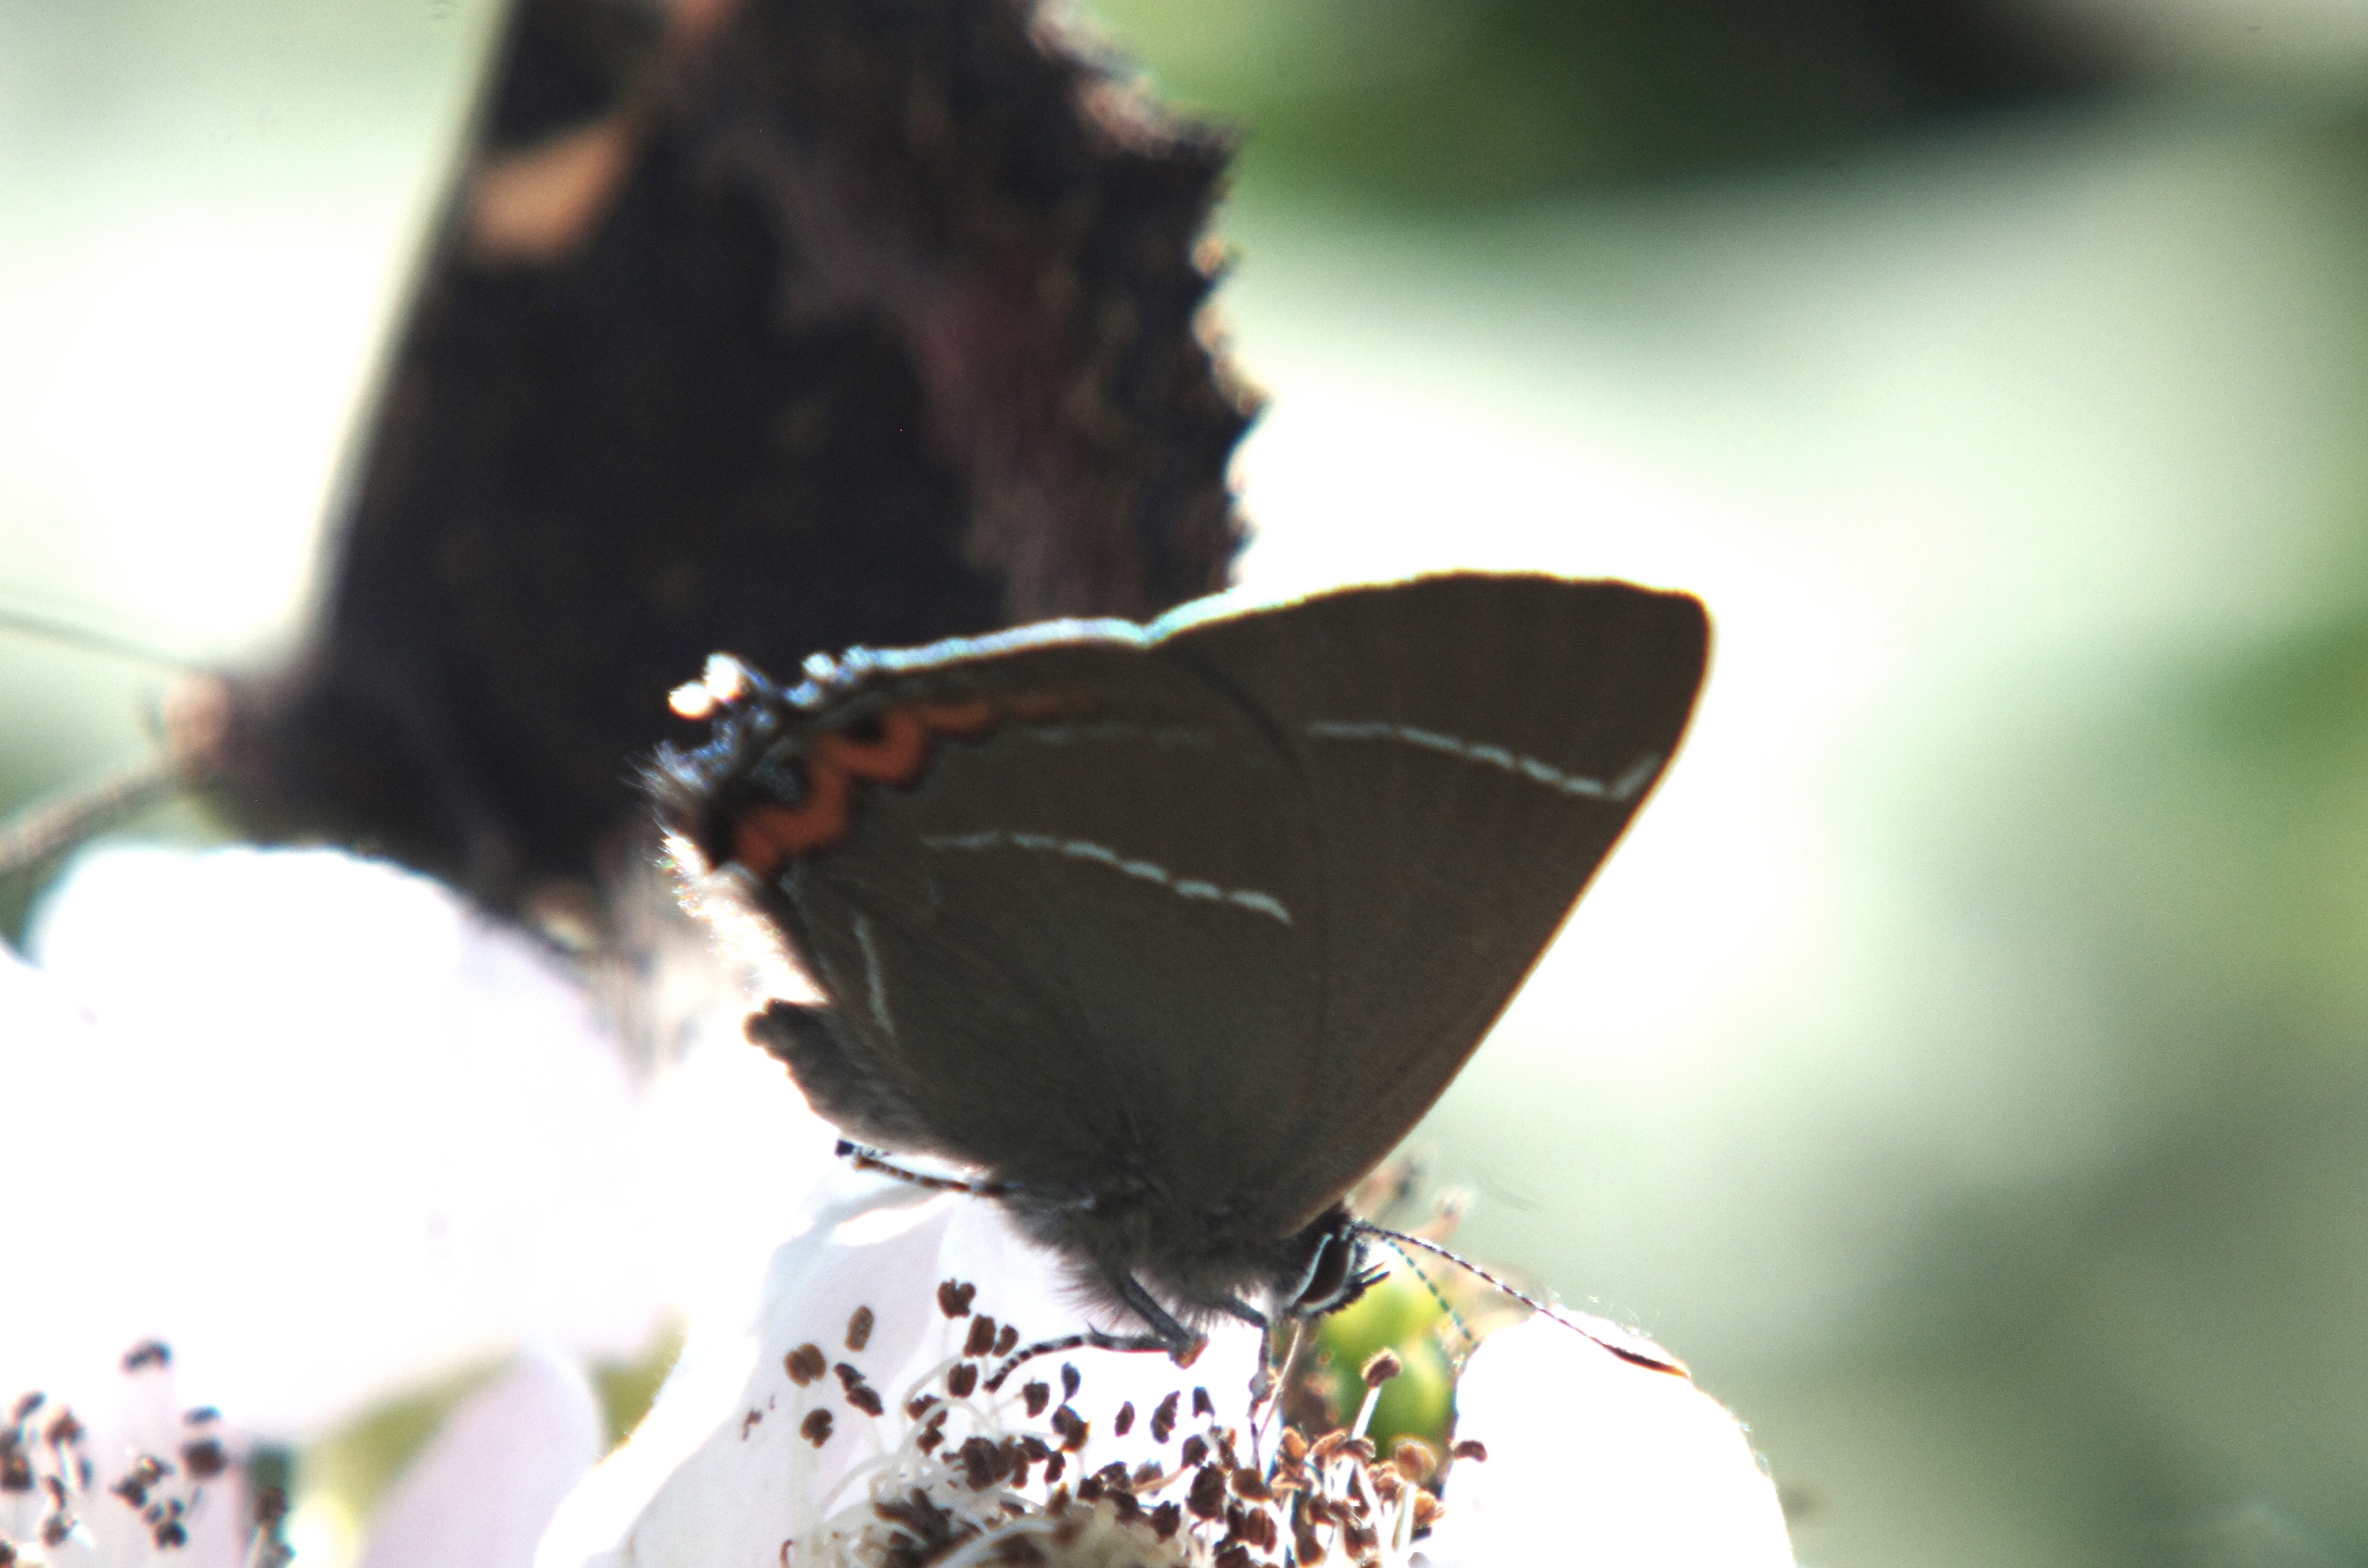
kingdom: Animalia
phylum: Arthropoda
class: Insecta
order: Lepidoptera
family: Lycaenidae
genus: Satyrium
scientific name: Satyrium w-album
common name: Det hvide W
